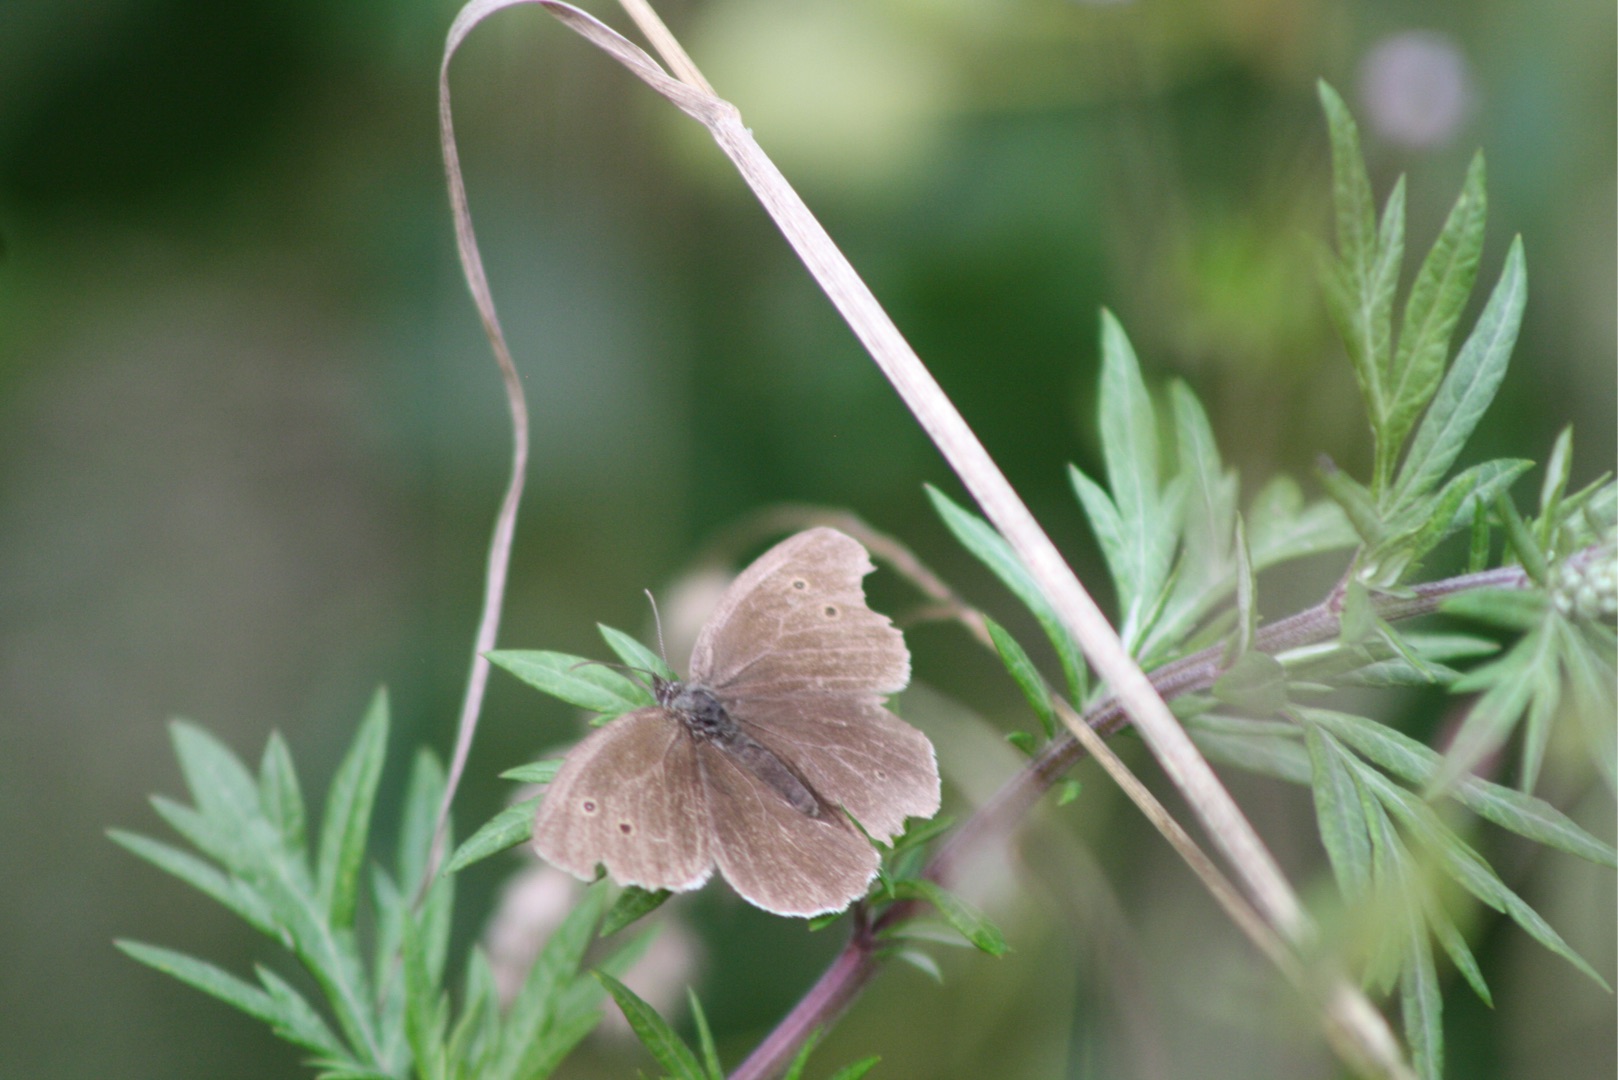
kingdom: Animalia
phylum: Arthropoda
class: Insecta
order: Lepidoptera
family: Nymphalidae
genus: Aphantopus
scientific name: Aphantopus hyperantus
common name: Engrandøje
